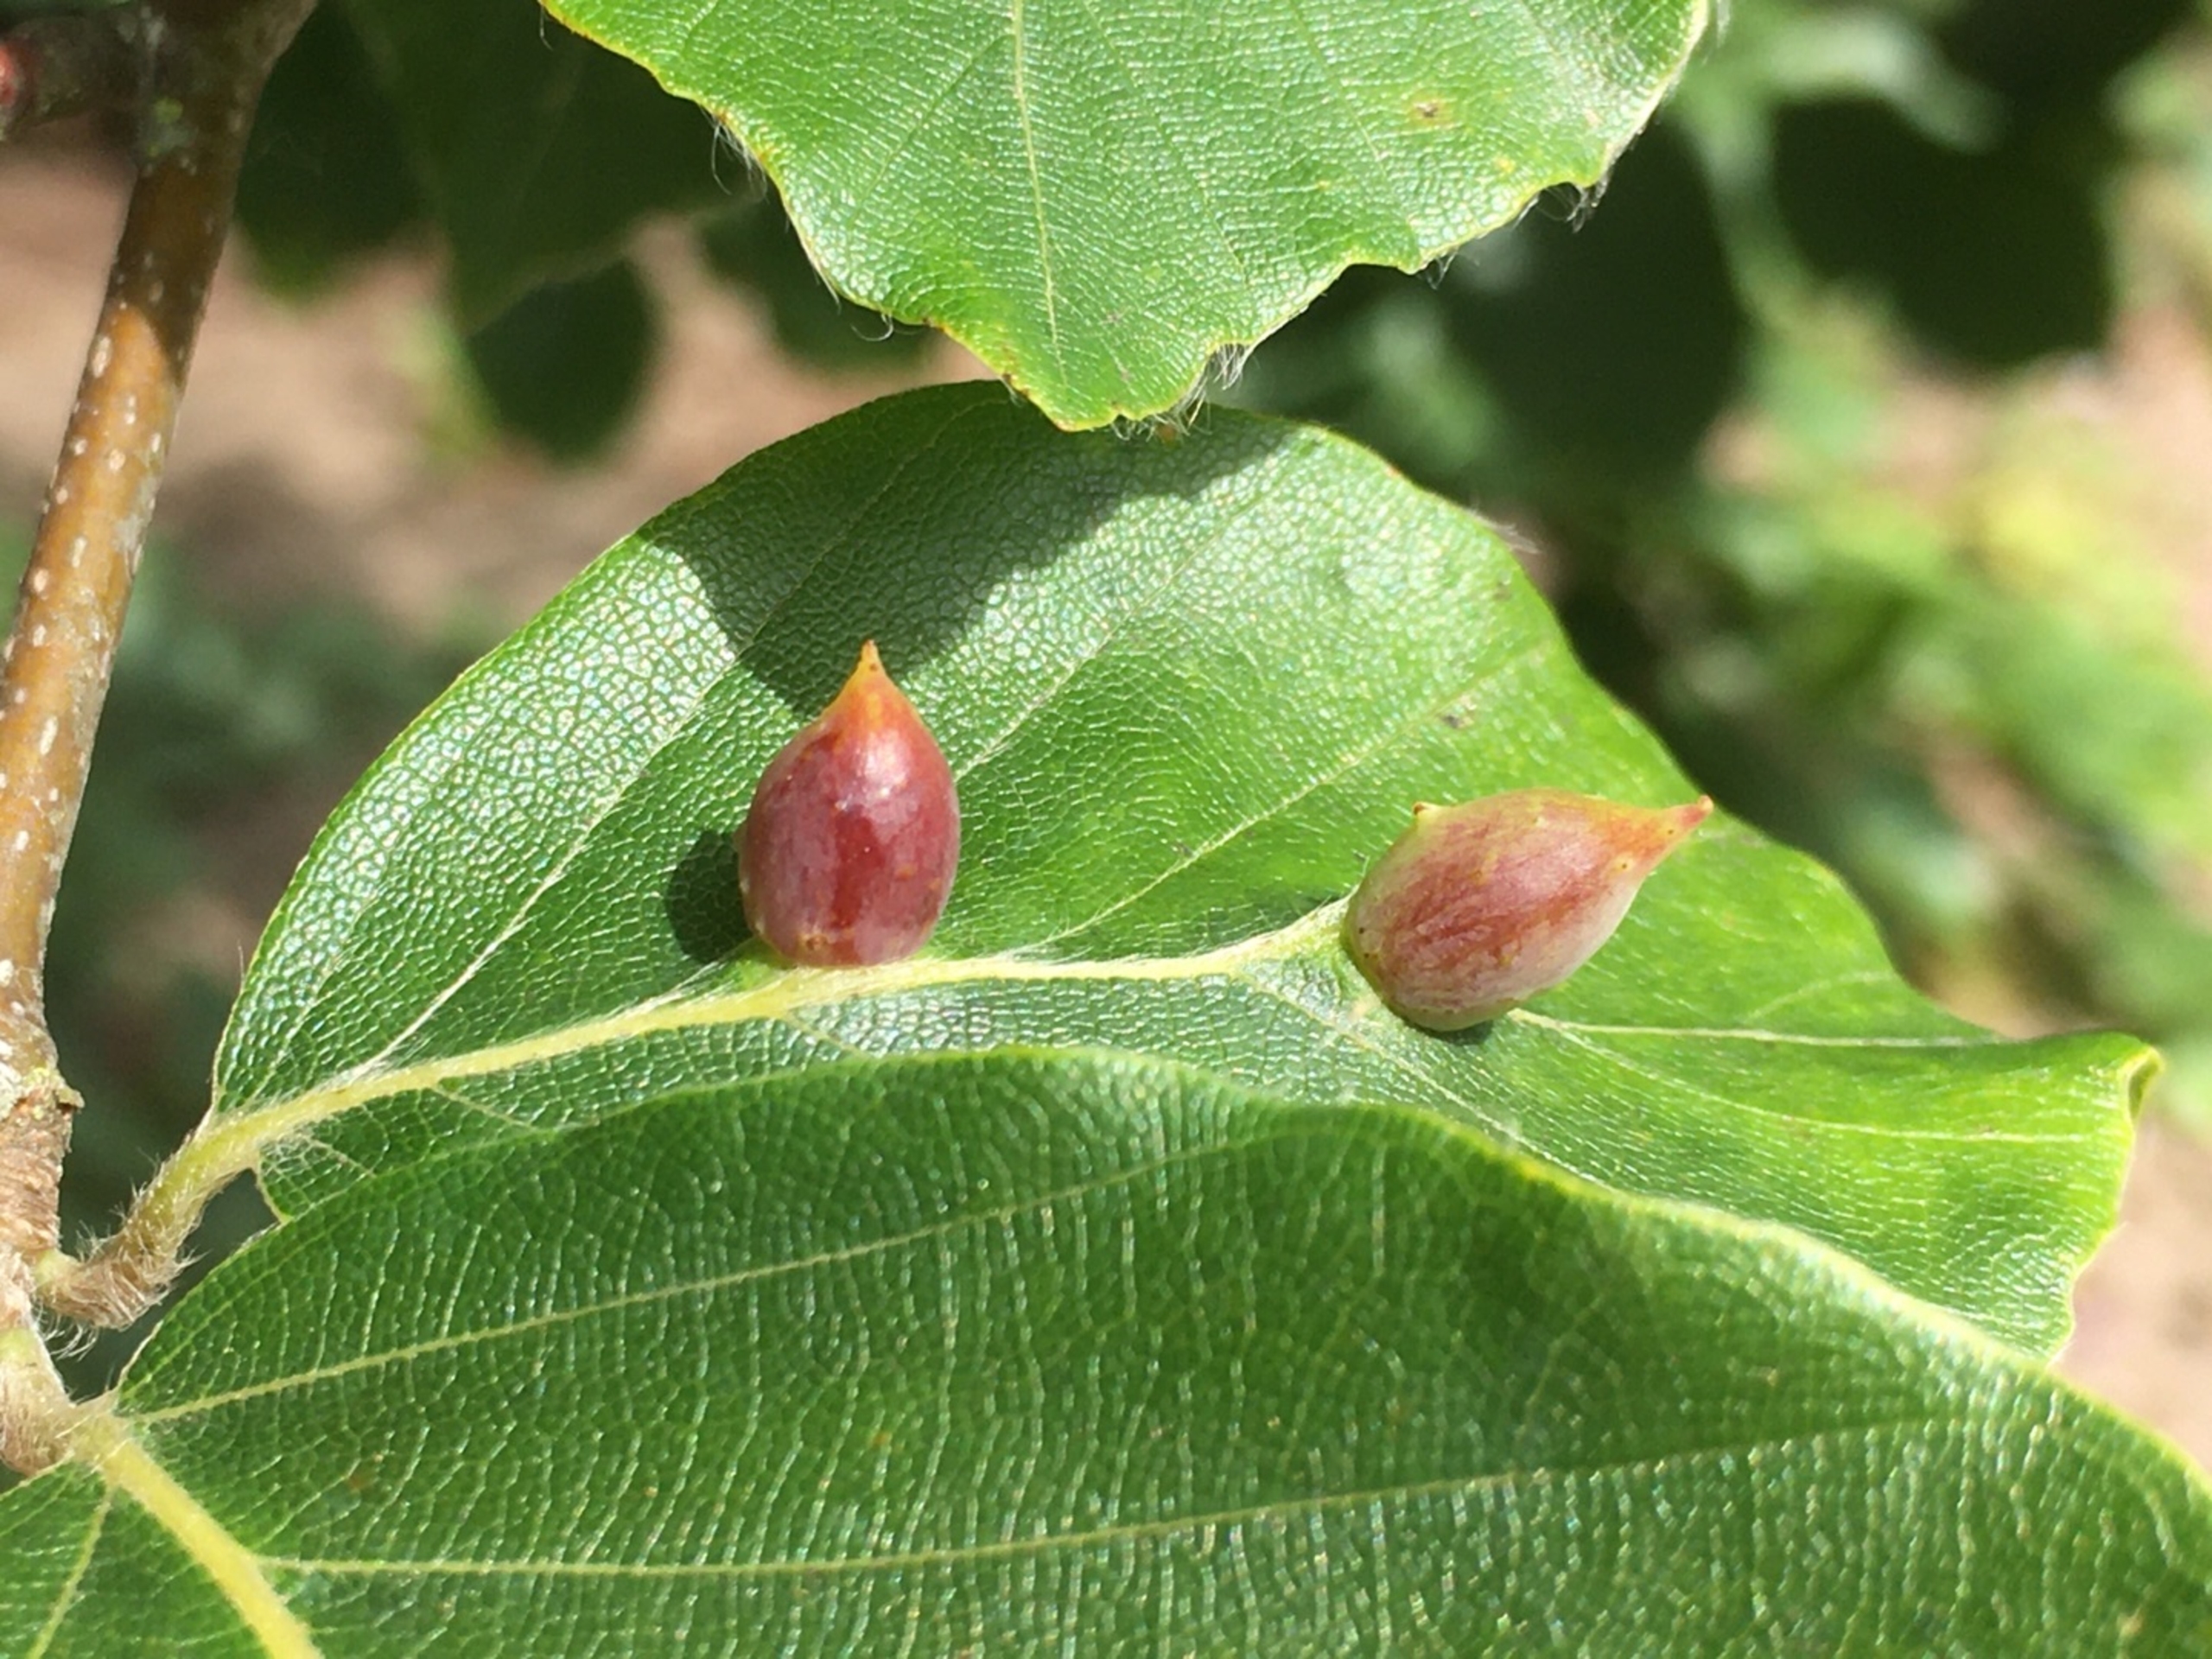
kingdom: Animalia
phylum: Arthropoda
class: Insecta
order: Diptera
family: Cecidomyiidae
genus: Mikiola
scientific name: Mikiola fagi
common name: Bøgegalmyg
